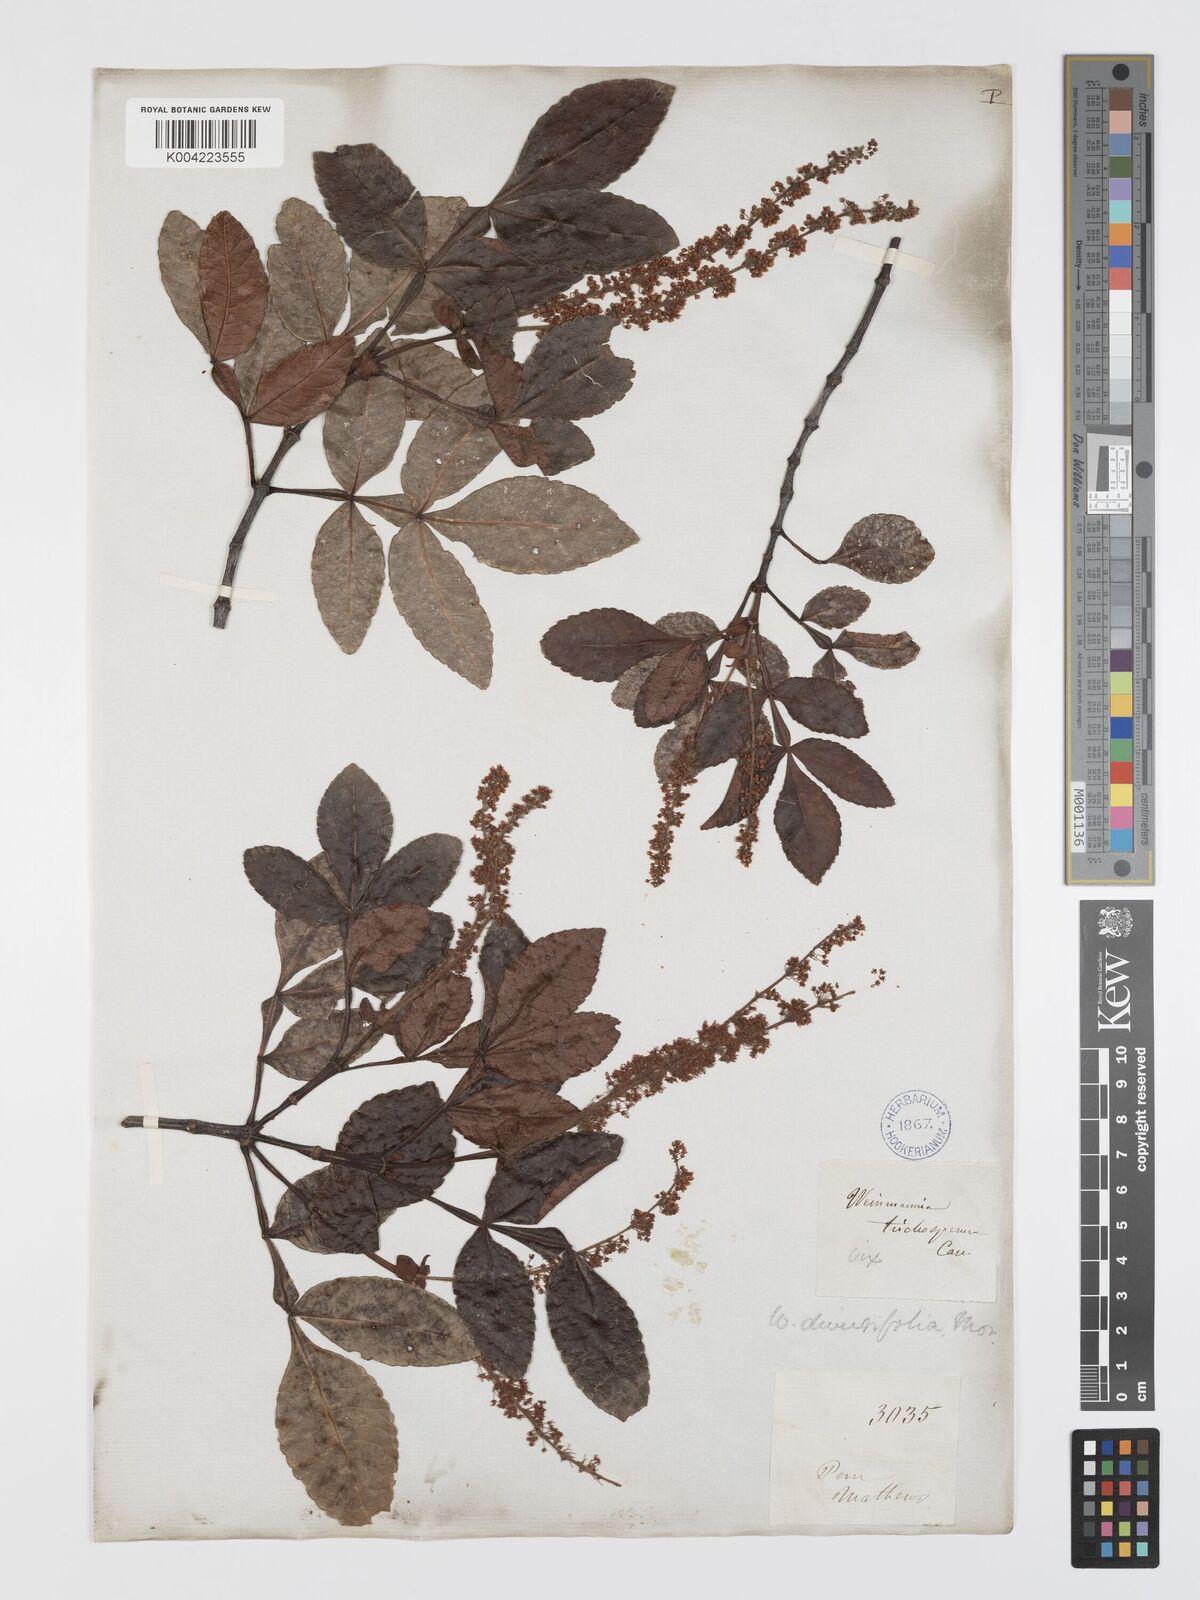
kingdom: Plantae
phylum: Tracheophyta
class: Magnoliopsida
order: Oxalidales
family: Cunoniaceae
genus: Weinmannia
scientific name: Weinmannia spruceana
